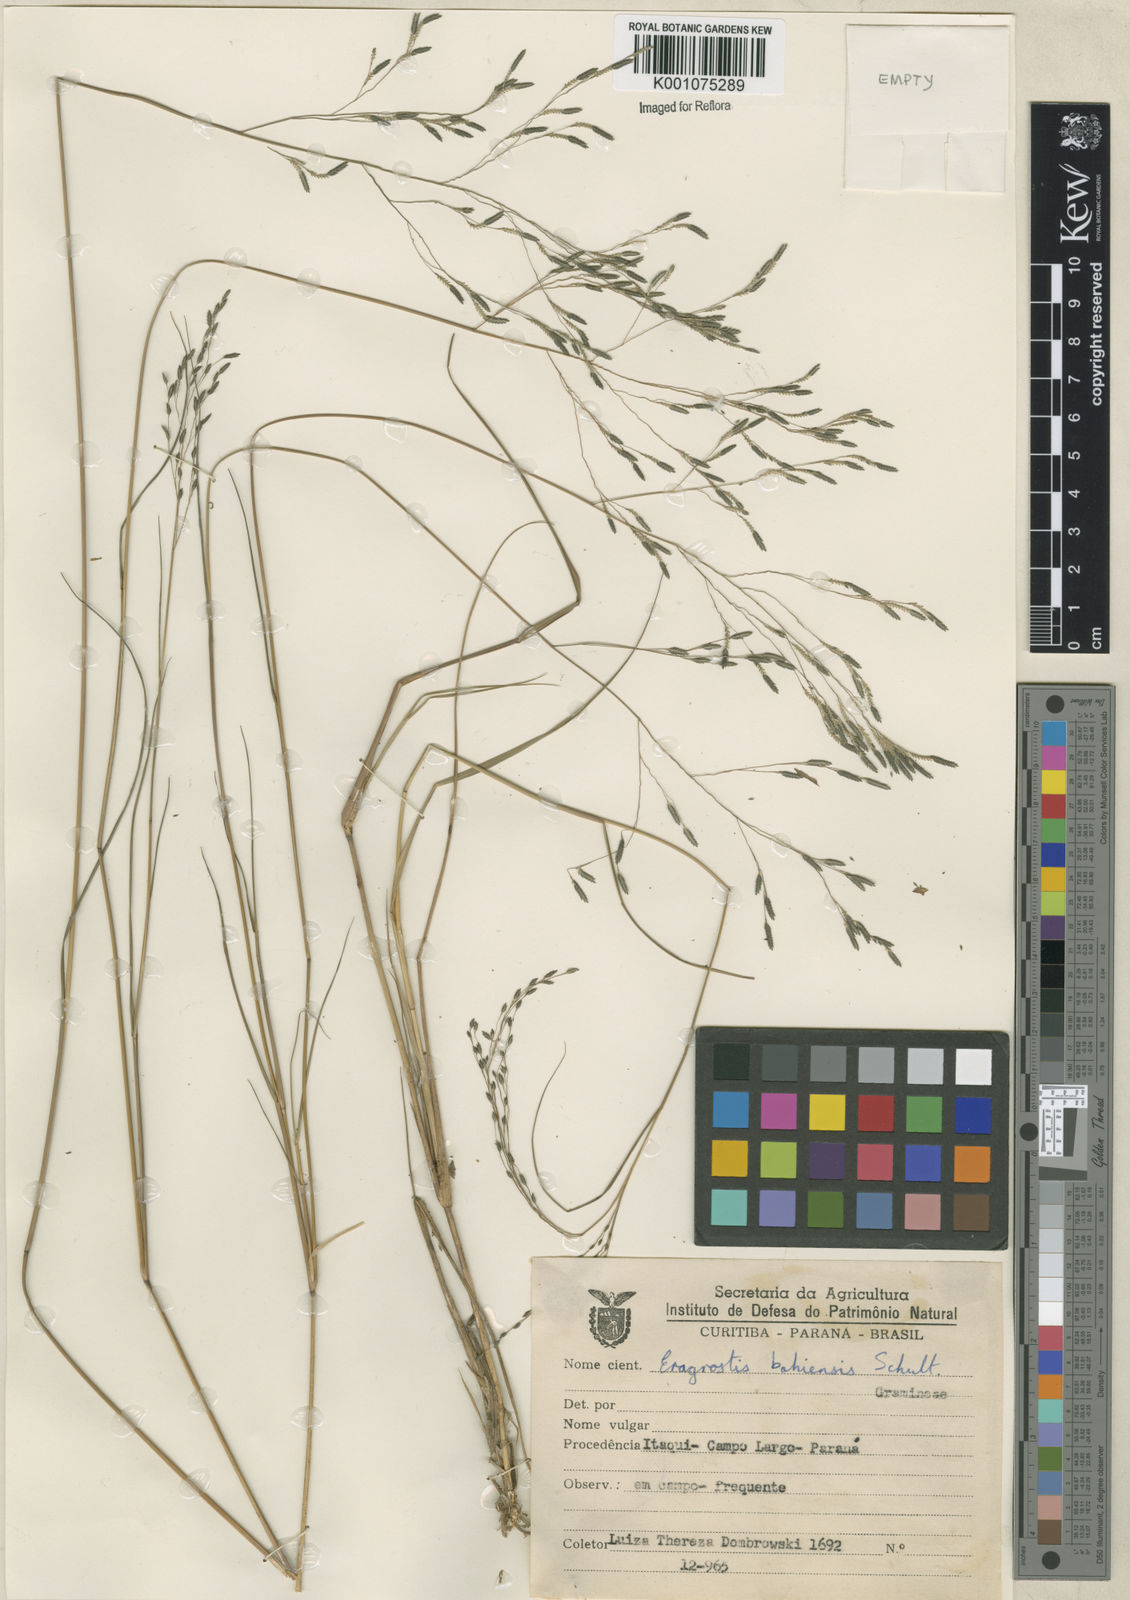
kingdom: Plantae
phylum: Tracheophyta
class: Liliopsida
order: Poales
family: Poaceae
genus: Eragrostis
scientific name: Eragrostis bahiensis
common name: Bahia lovegrass
